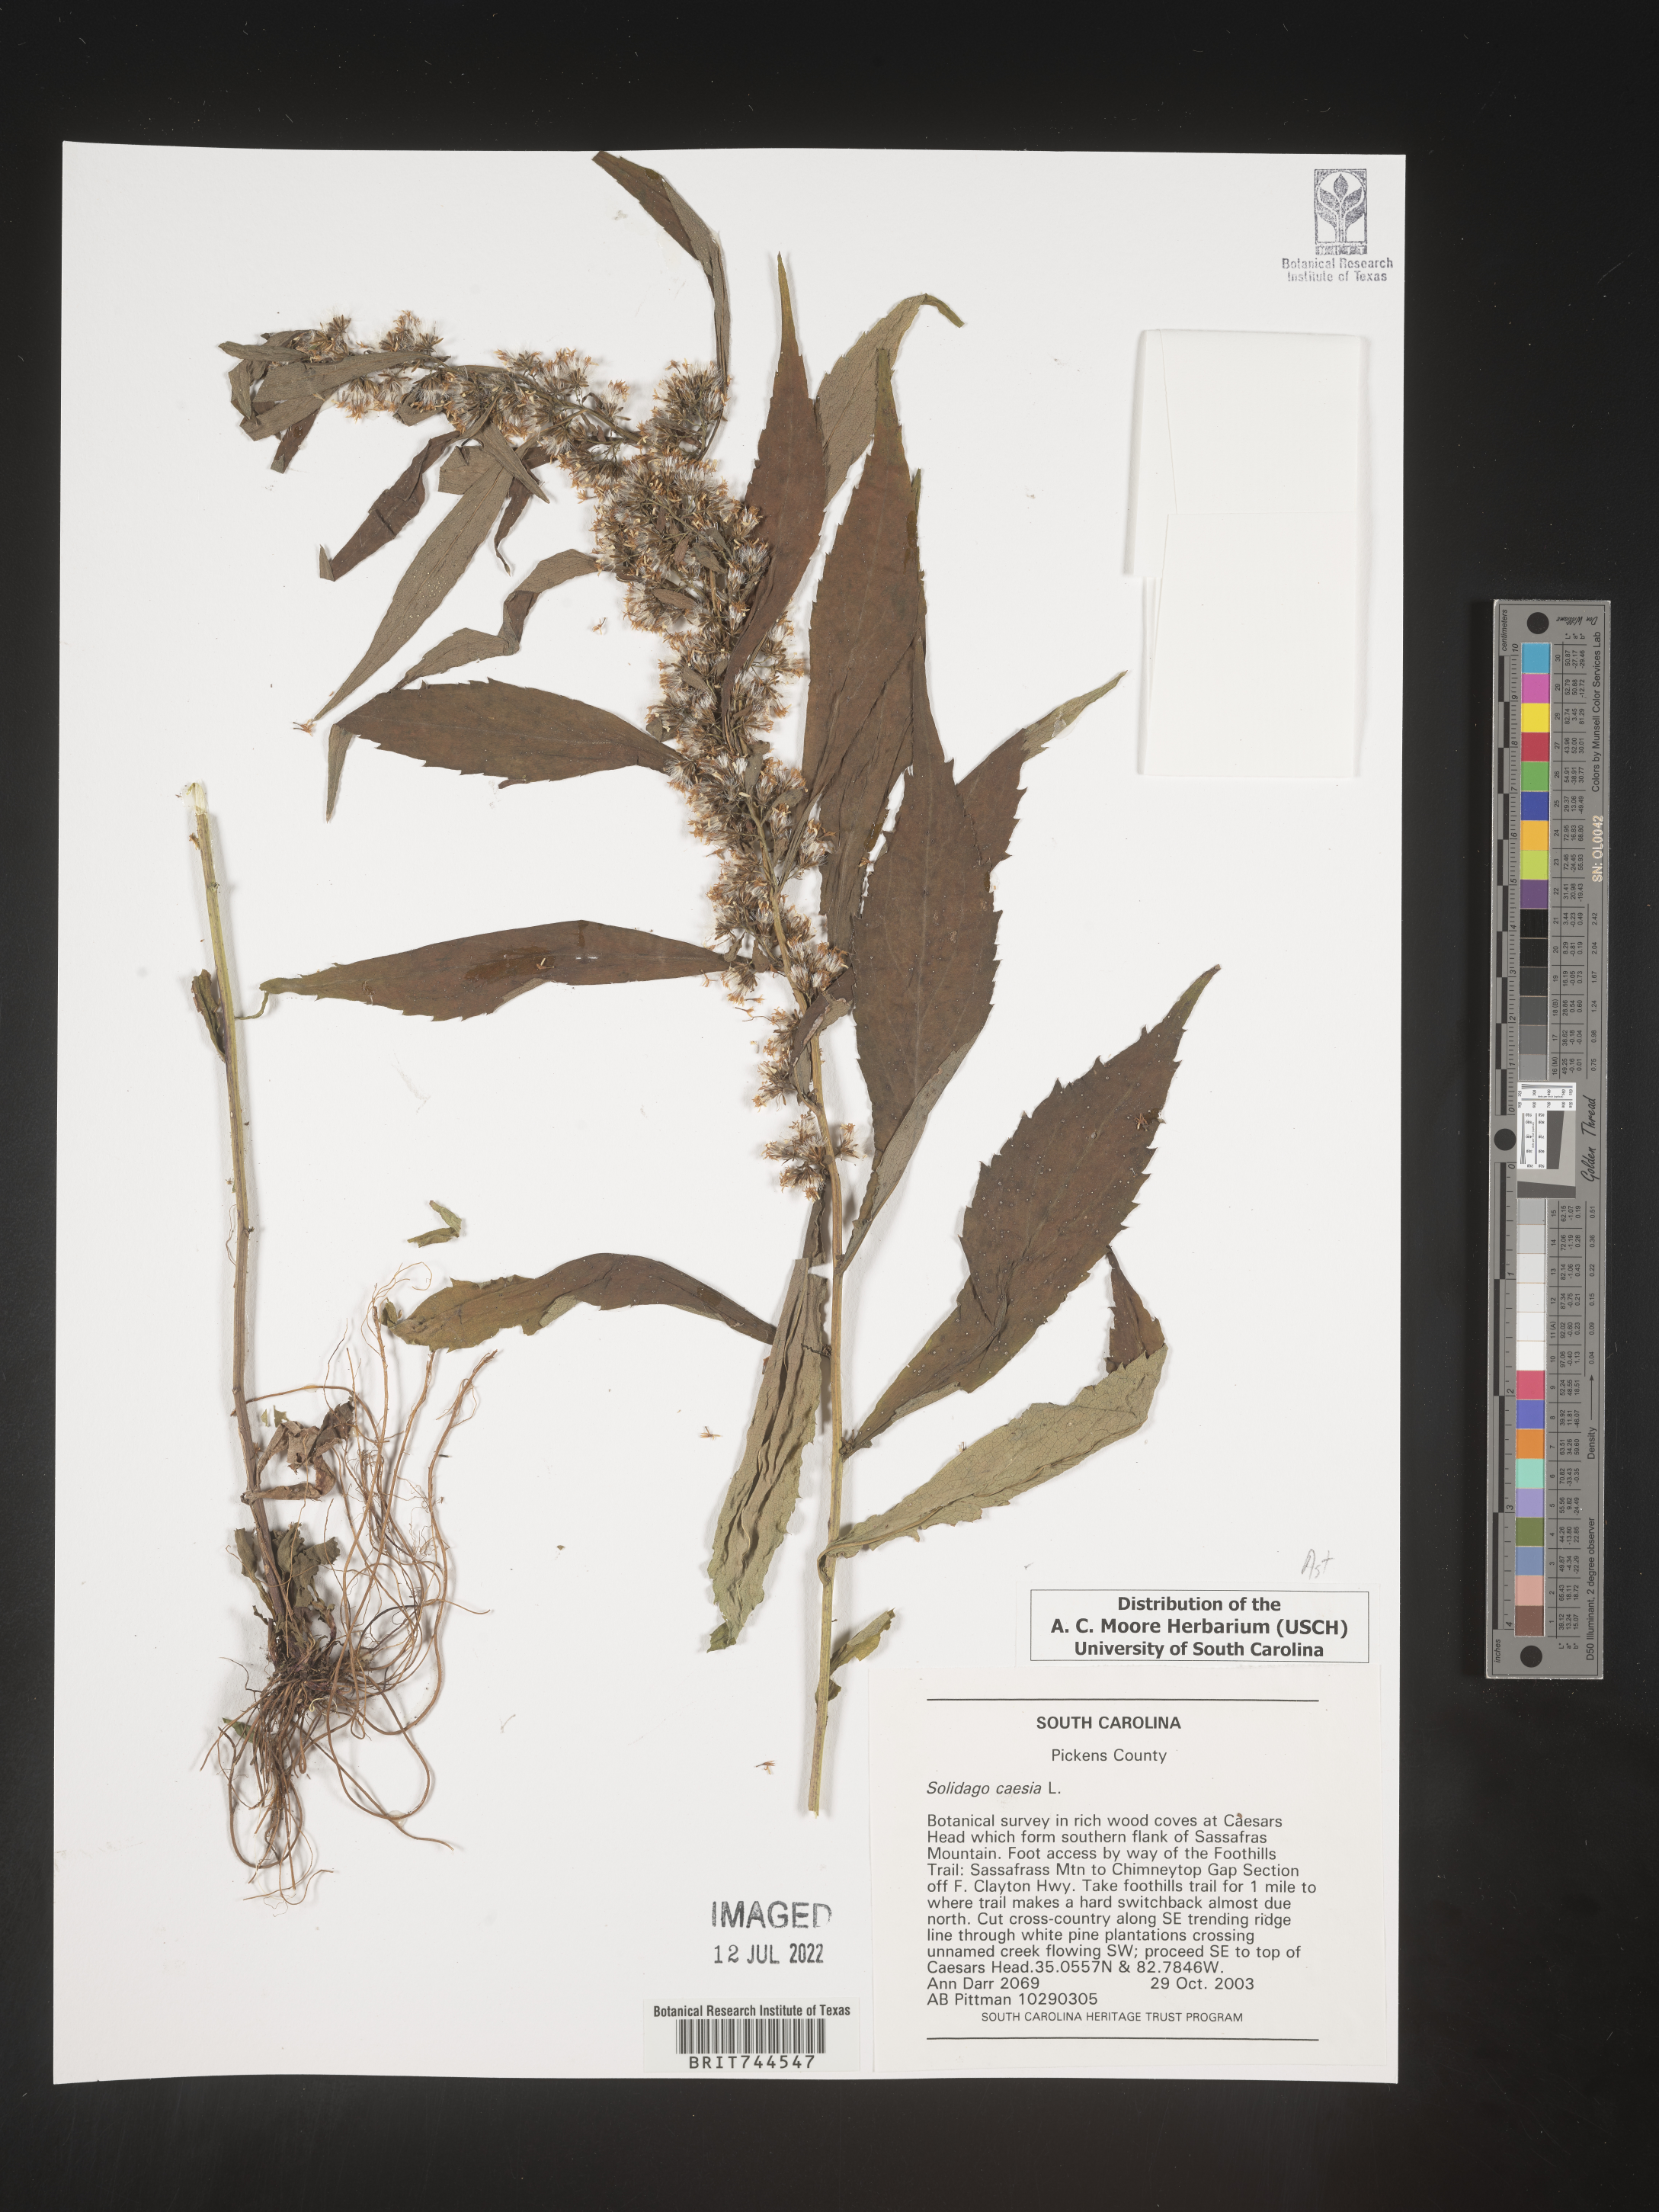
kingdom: Plantae
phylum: Tracheophyta
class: Magnoliopsida
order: Asterales
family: Asteraceae
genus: Solidago
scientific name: Solidago caesia
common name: Woodland goldenrod
